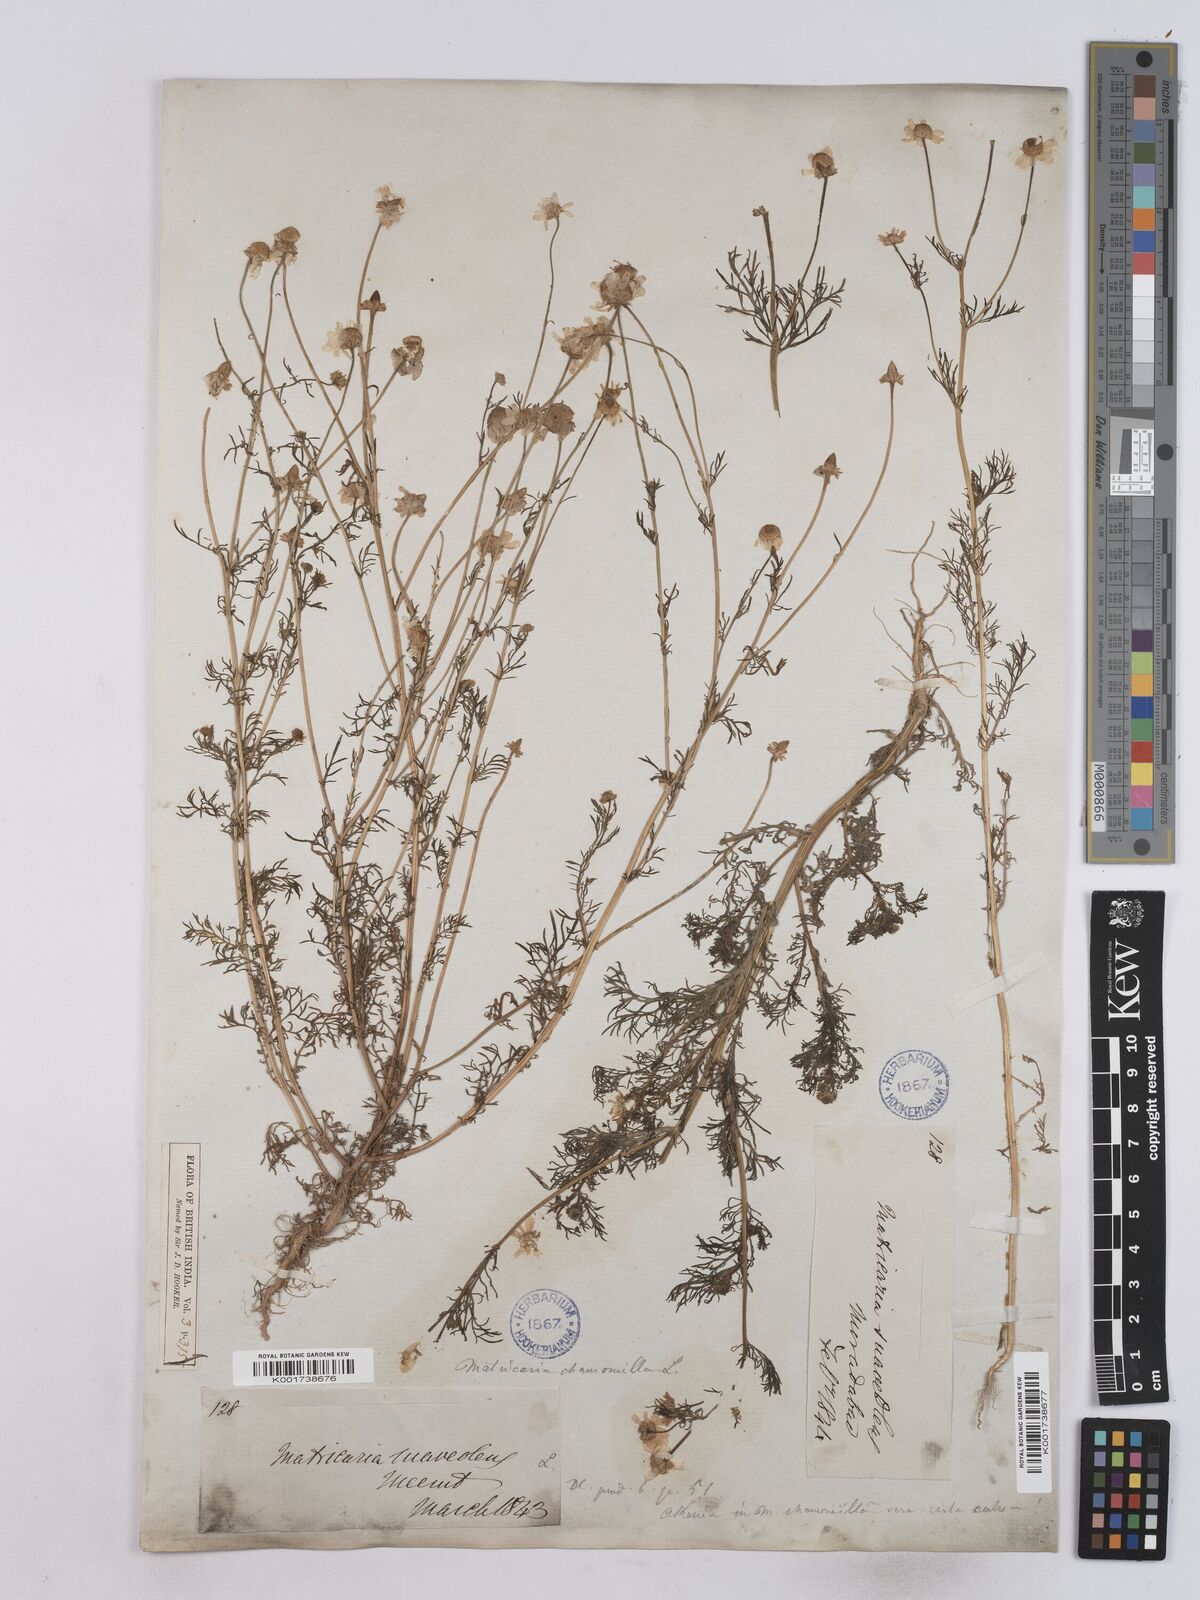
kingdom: Plantae
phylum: Tracheophyta
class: Magnoliopsida
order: Asterales
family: Asteraceae
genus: Matricaria
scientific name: Matricaria chamomilla
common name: Scented mayweed
